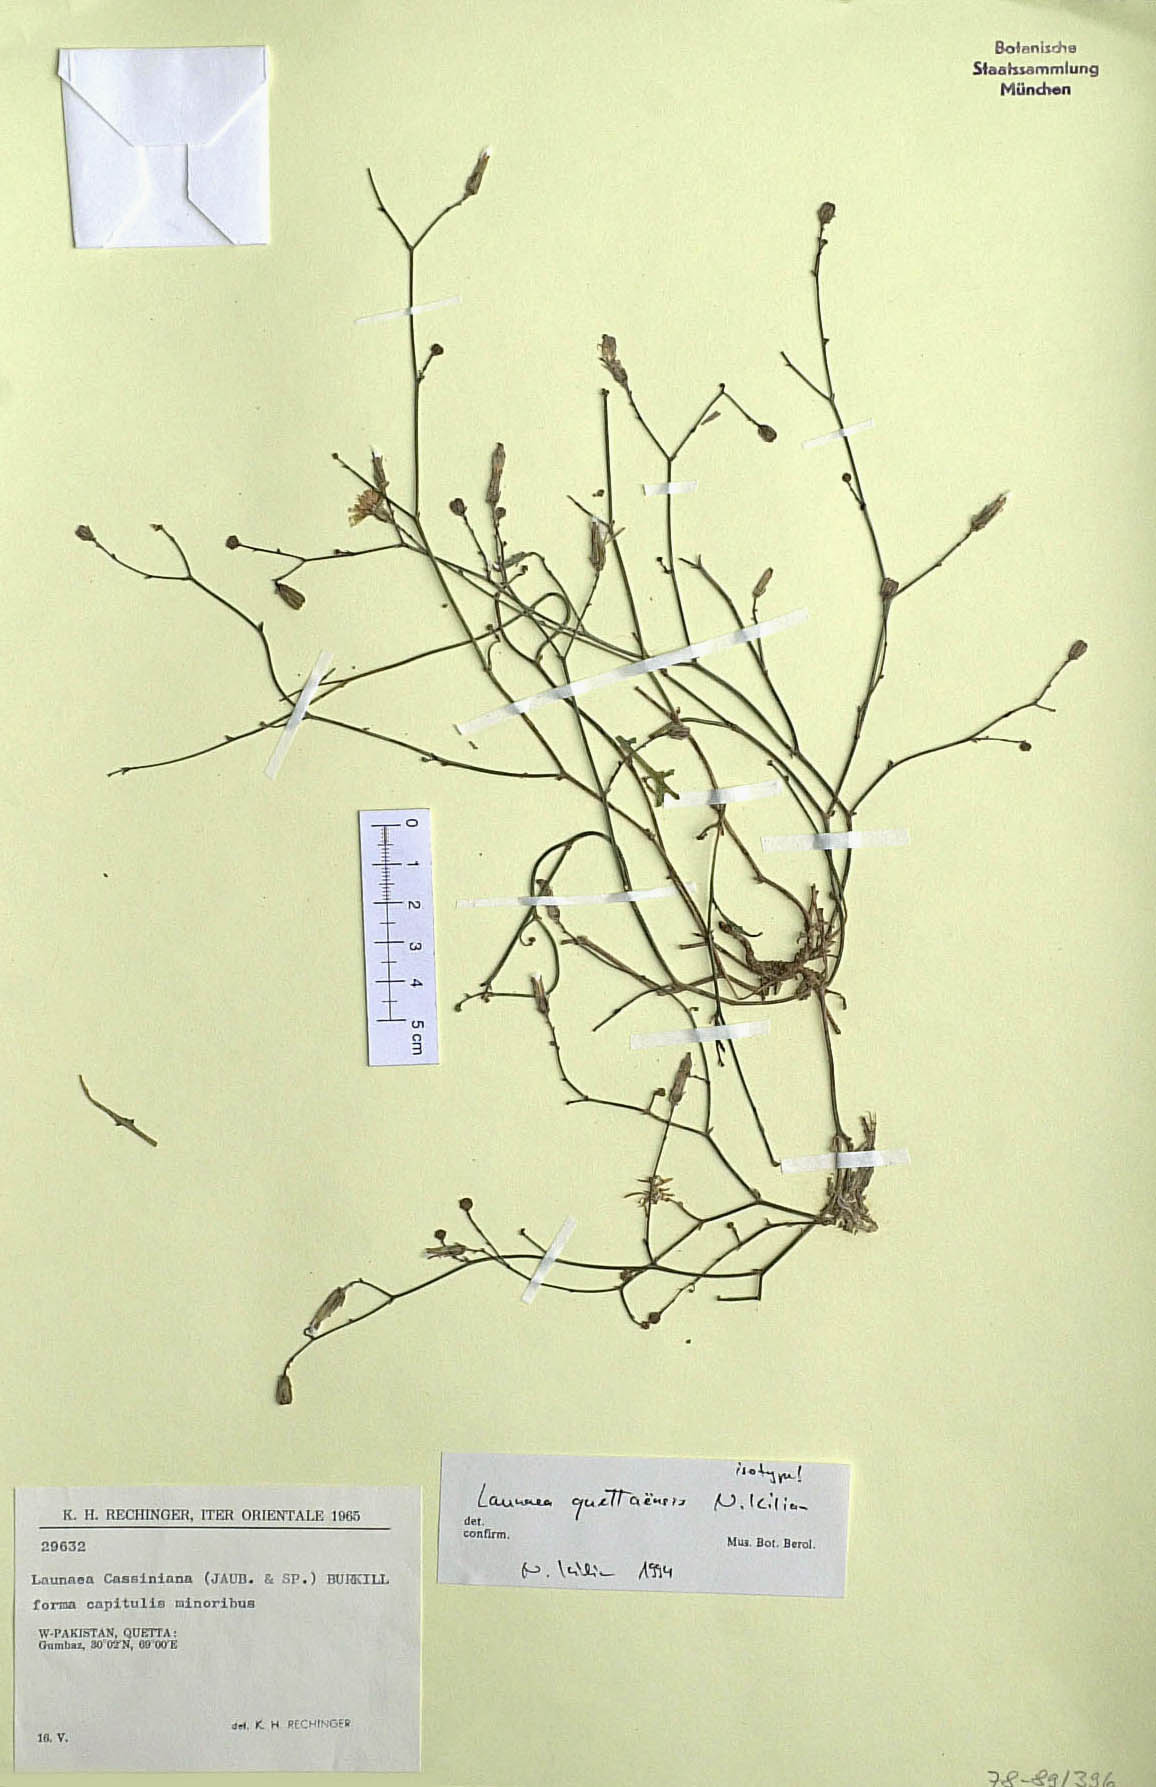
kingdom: Plantae
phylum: Tracheophyta
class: Magnoliopsida
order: Asterales
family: Asteraceae
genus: Launaea
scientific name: Launaea quettaensis
